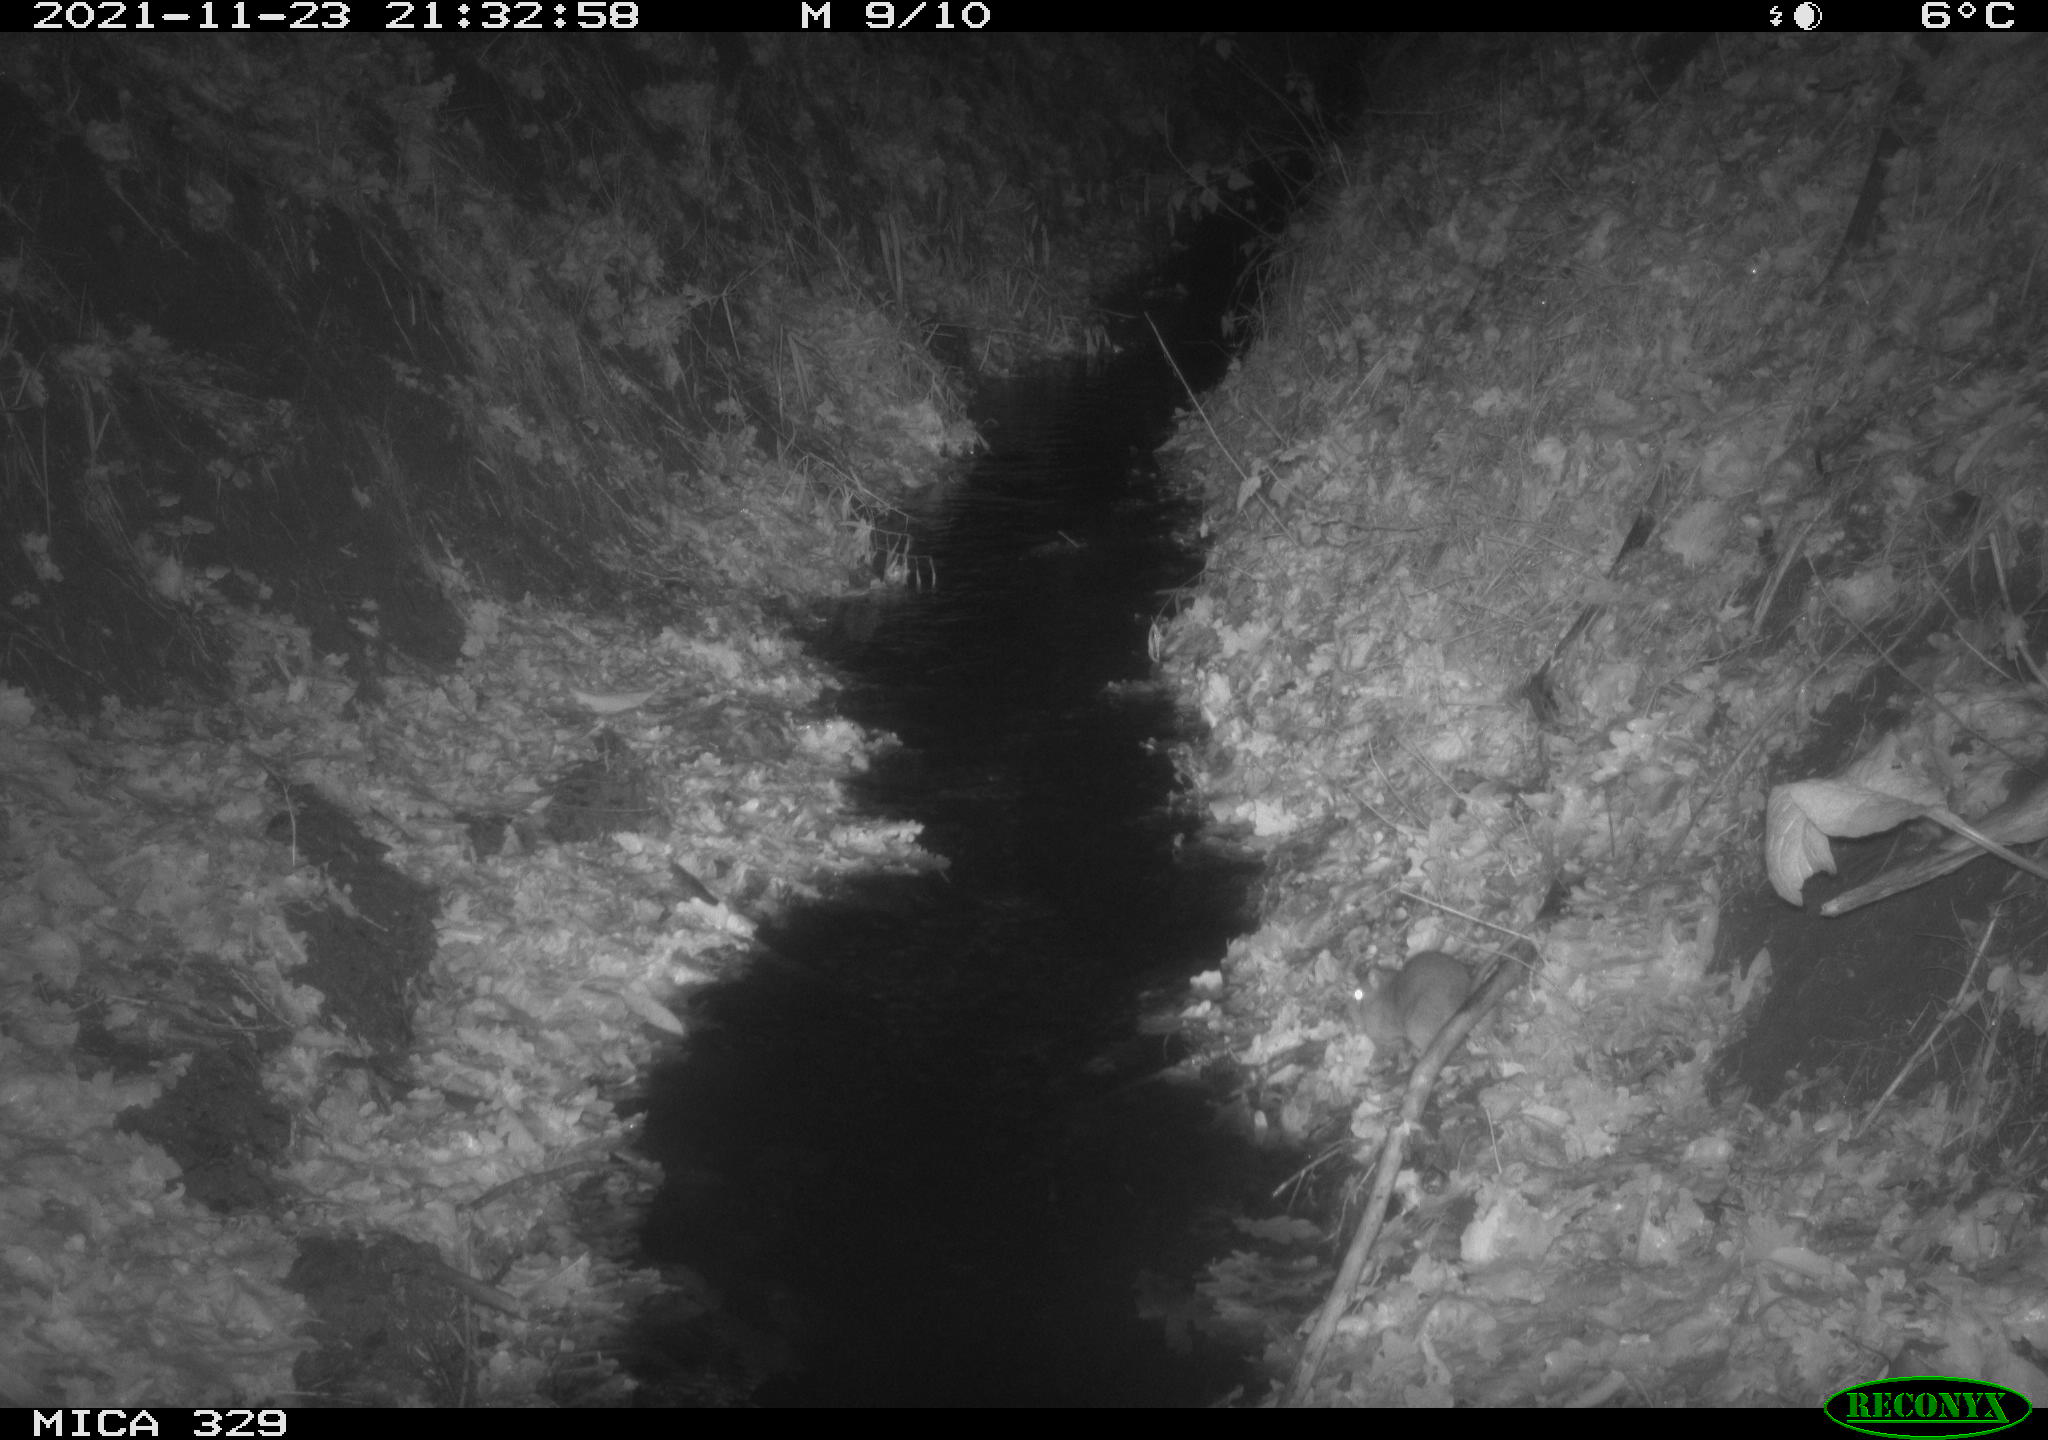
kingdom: Animalia
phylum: Chordata
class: Mammalia
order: Rodentia
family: Muridae
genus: Rattus
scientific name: Rattus norvegicus
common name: Brown rat
